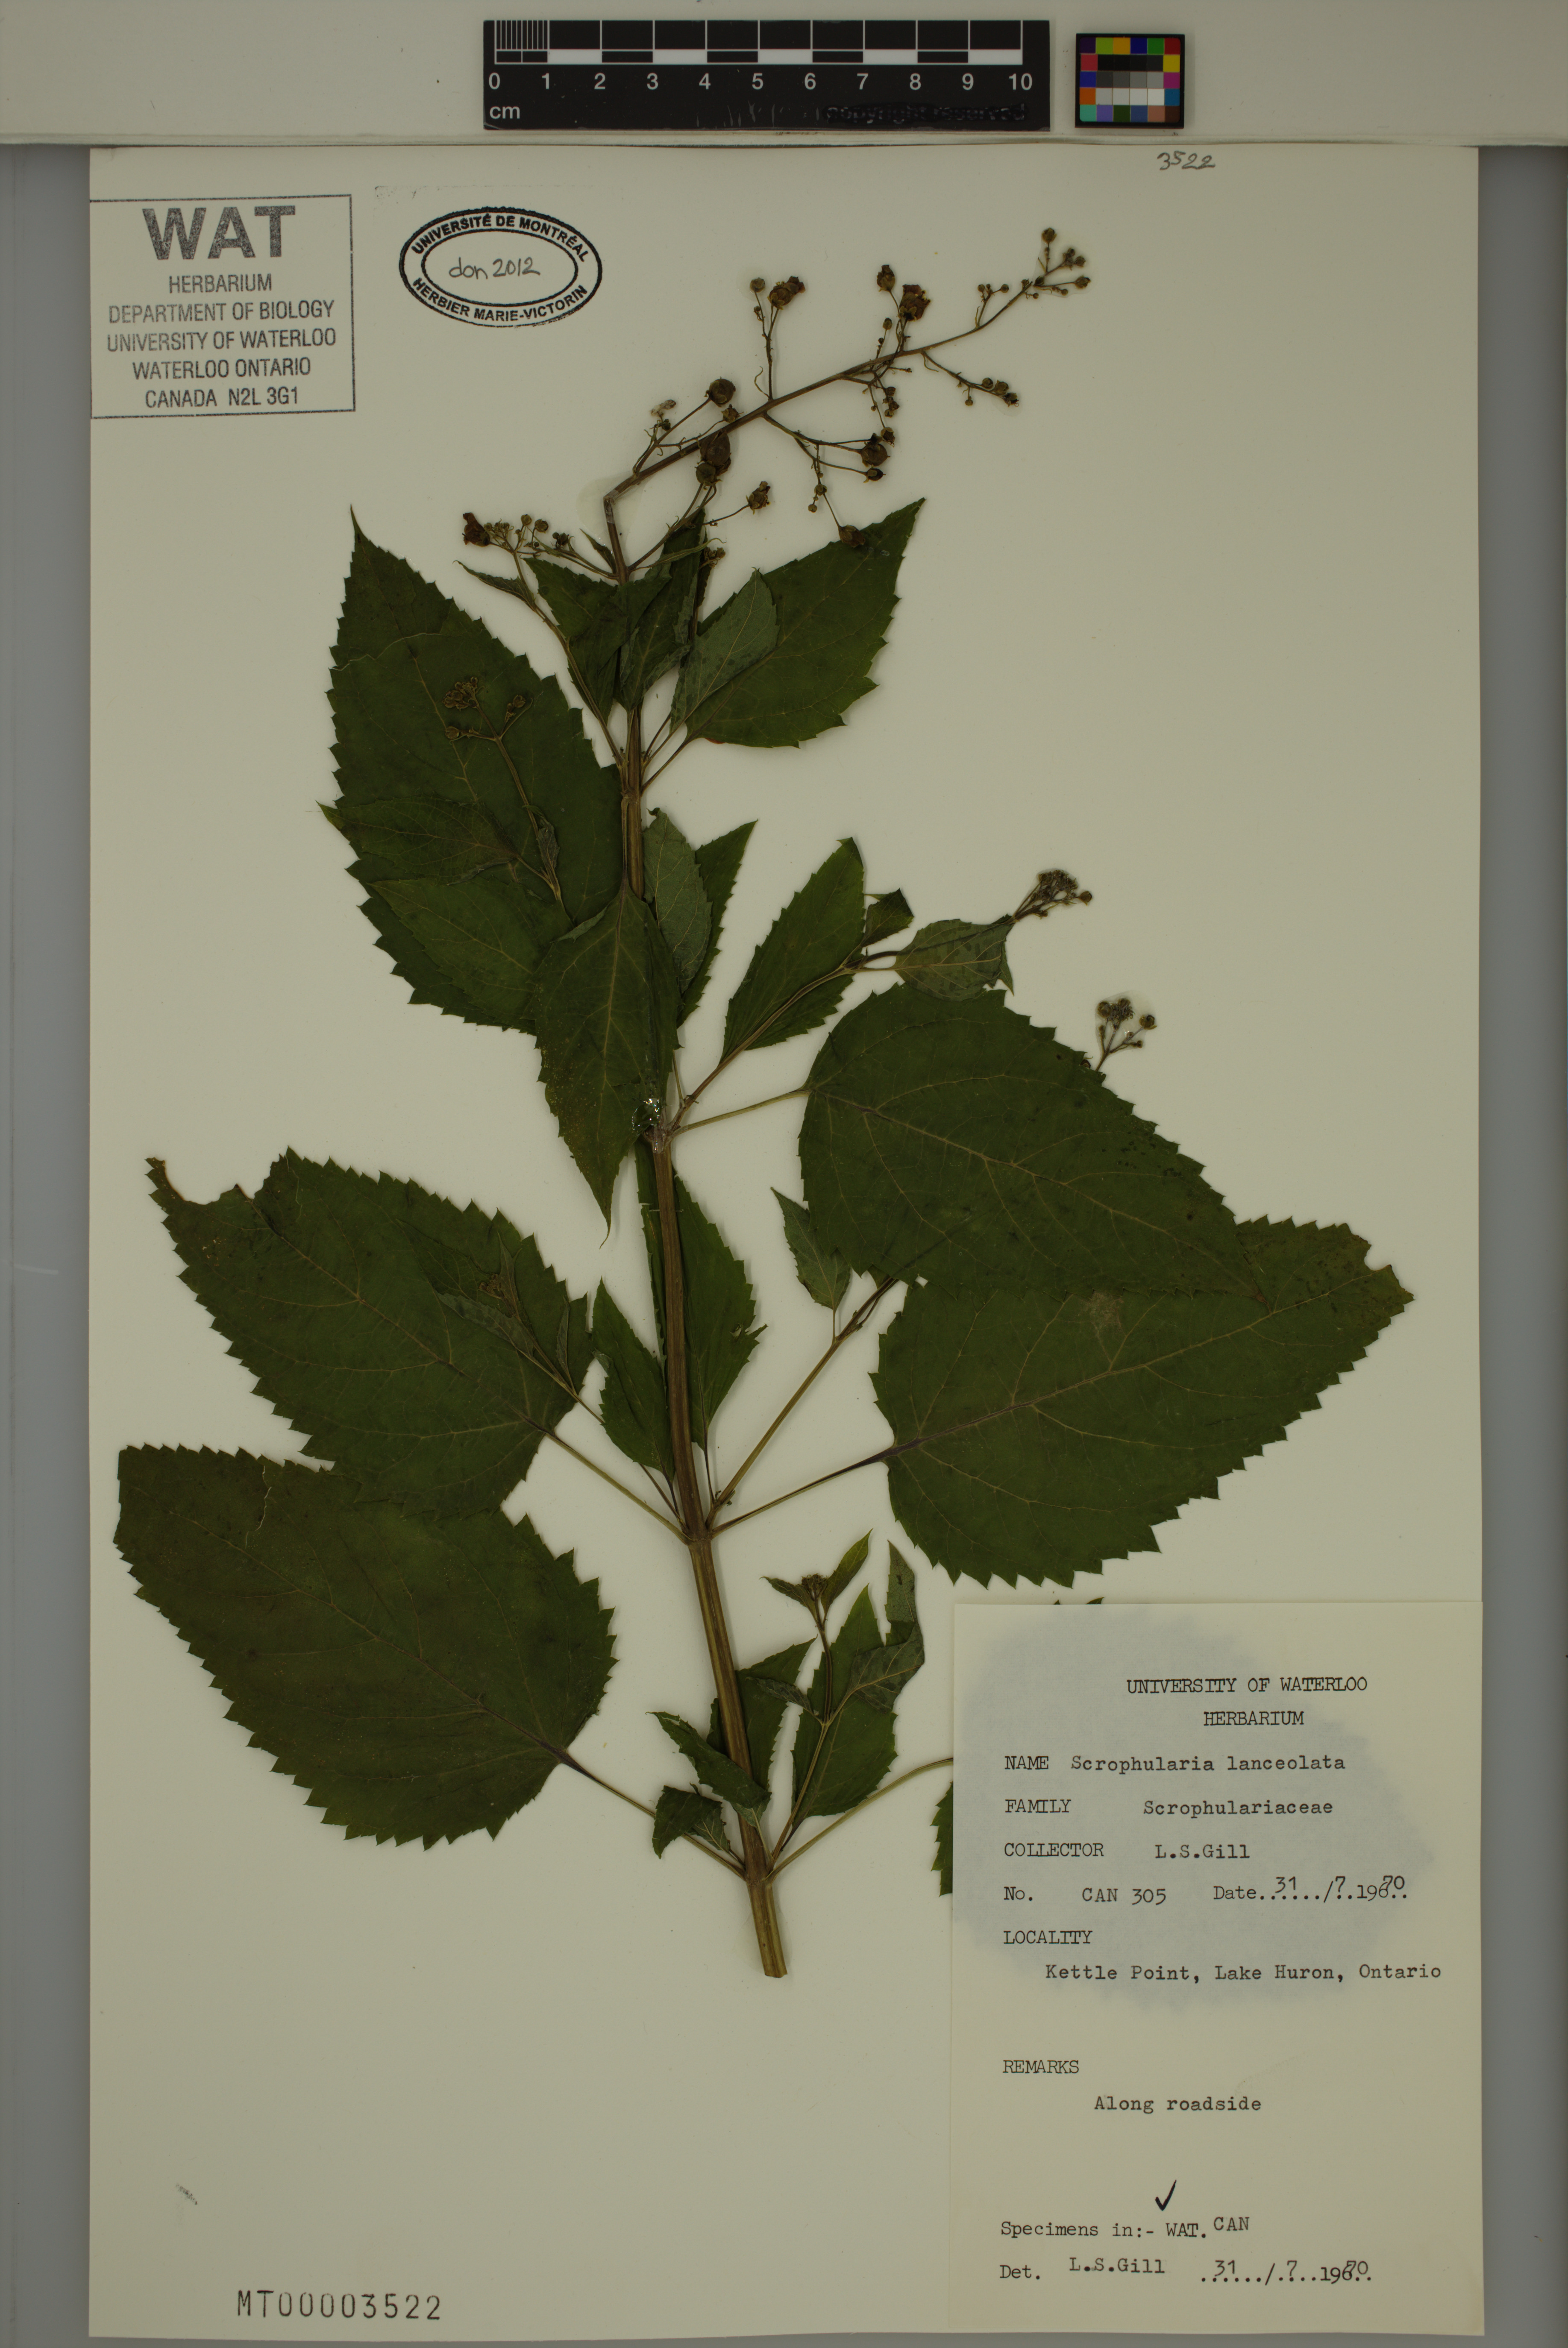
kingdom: Plantae
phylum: Tracheophyta
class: Magnoliopsida
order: Lamiales
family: Scrophulariaceae
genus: Scrophularia
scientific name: Scrophularia lanceolata
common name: American figwort
